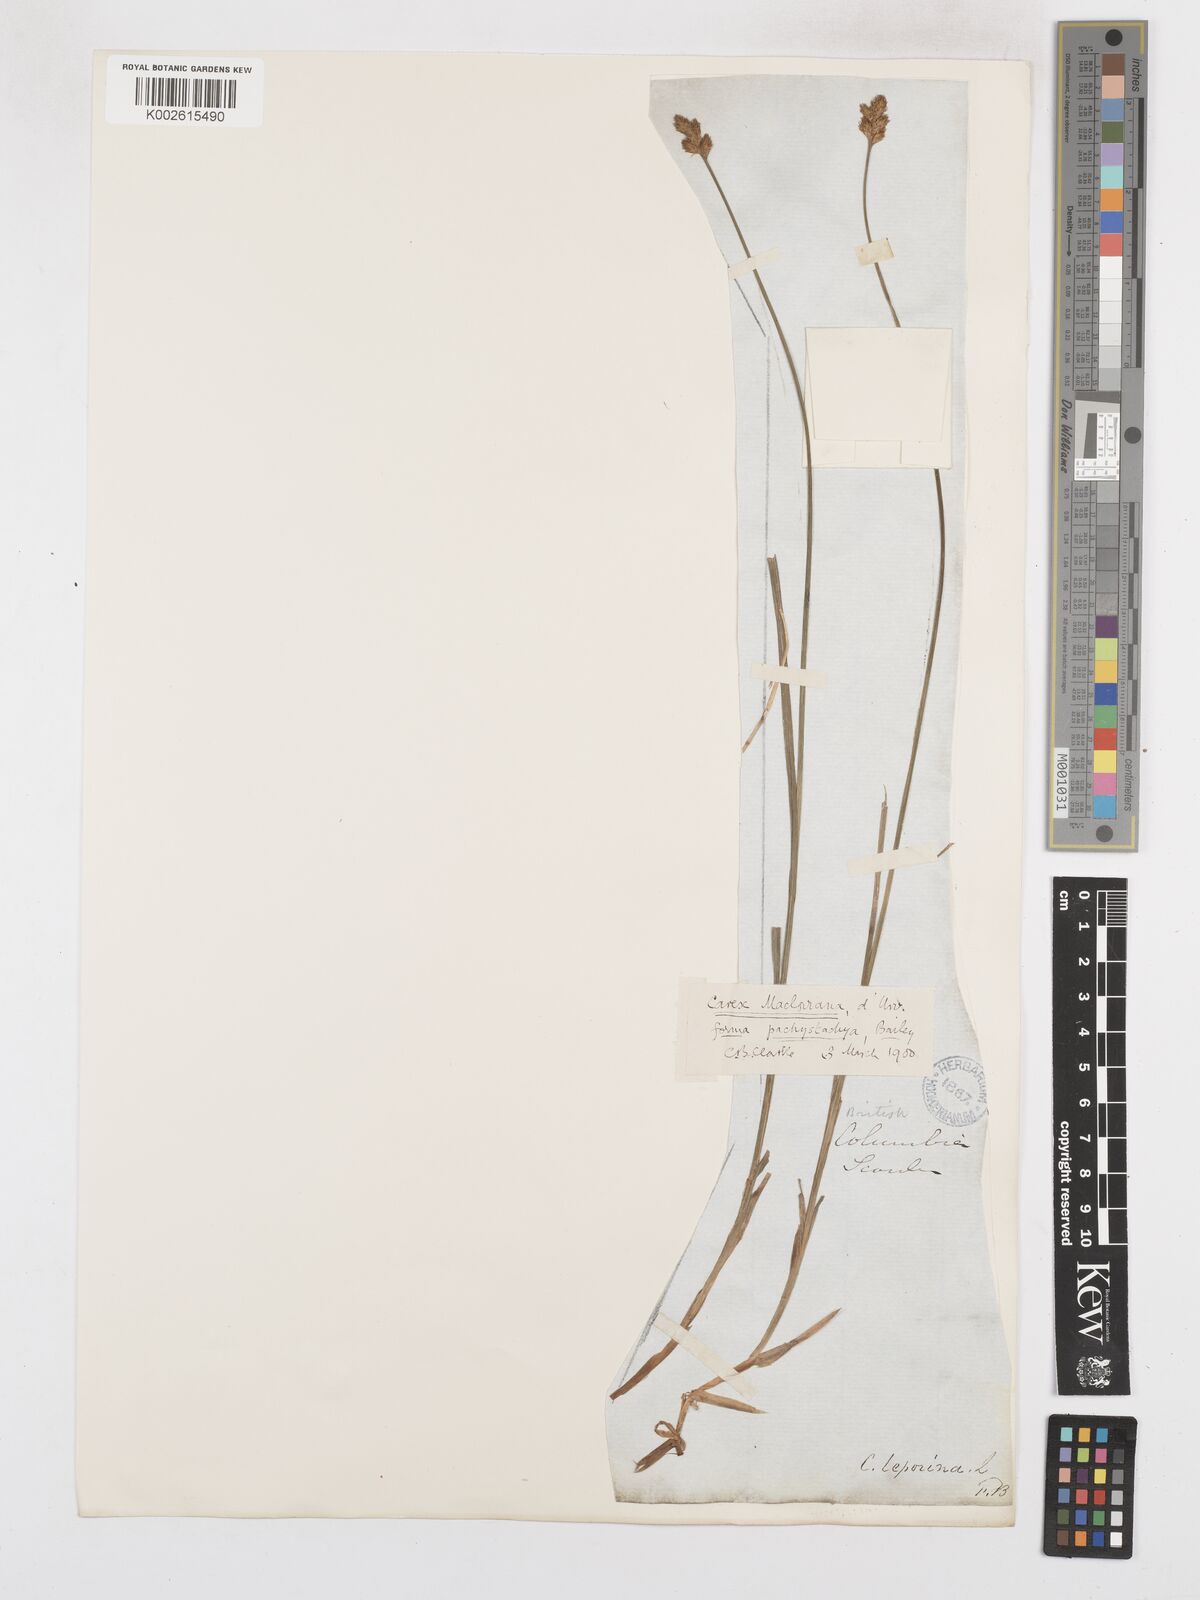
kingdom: Plantae
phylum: Tracheophyta
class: Liliopsida
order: Poales
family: Cyperaceae
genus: Carex
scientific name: Carex macloviana
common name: Falkland island sedge
